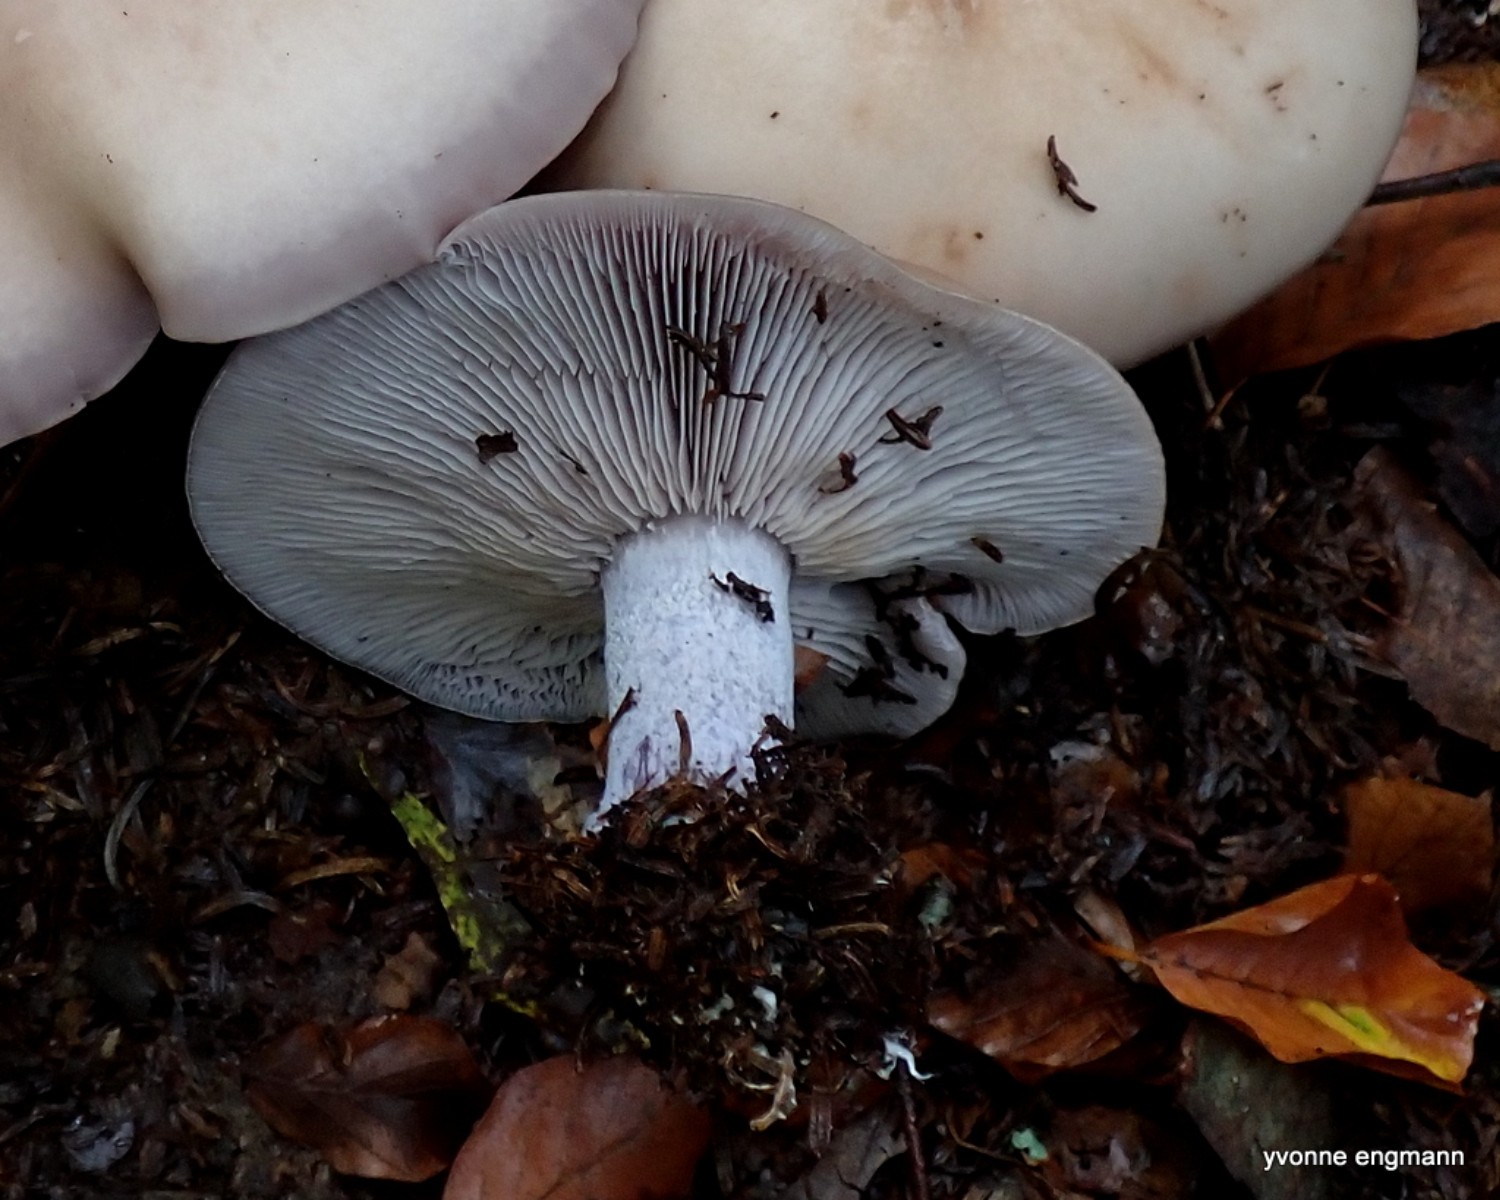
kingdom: Fungi
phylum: Basidiomycota
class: Agaricomycetes
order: Agaricales
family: Tricholomataceae
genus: Lepista
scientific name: Lepista personata
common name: bleg hekseringshat
